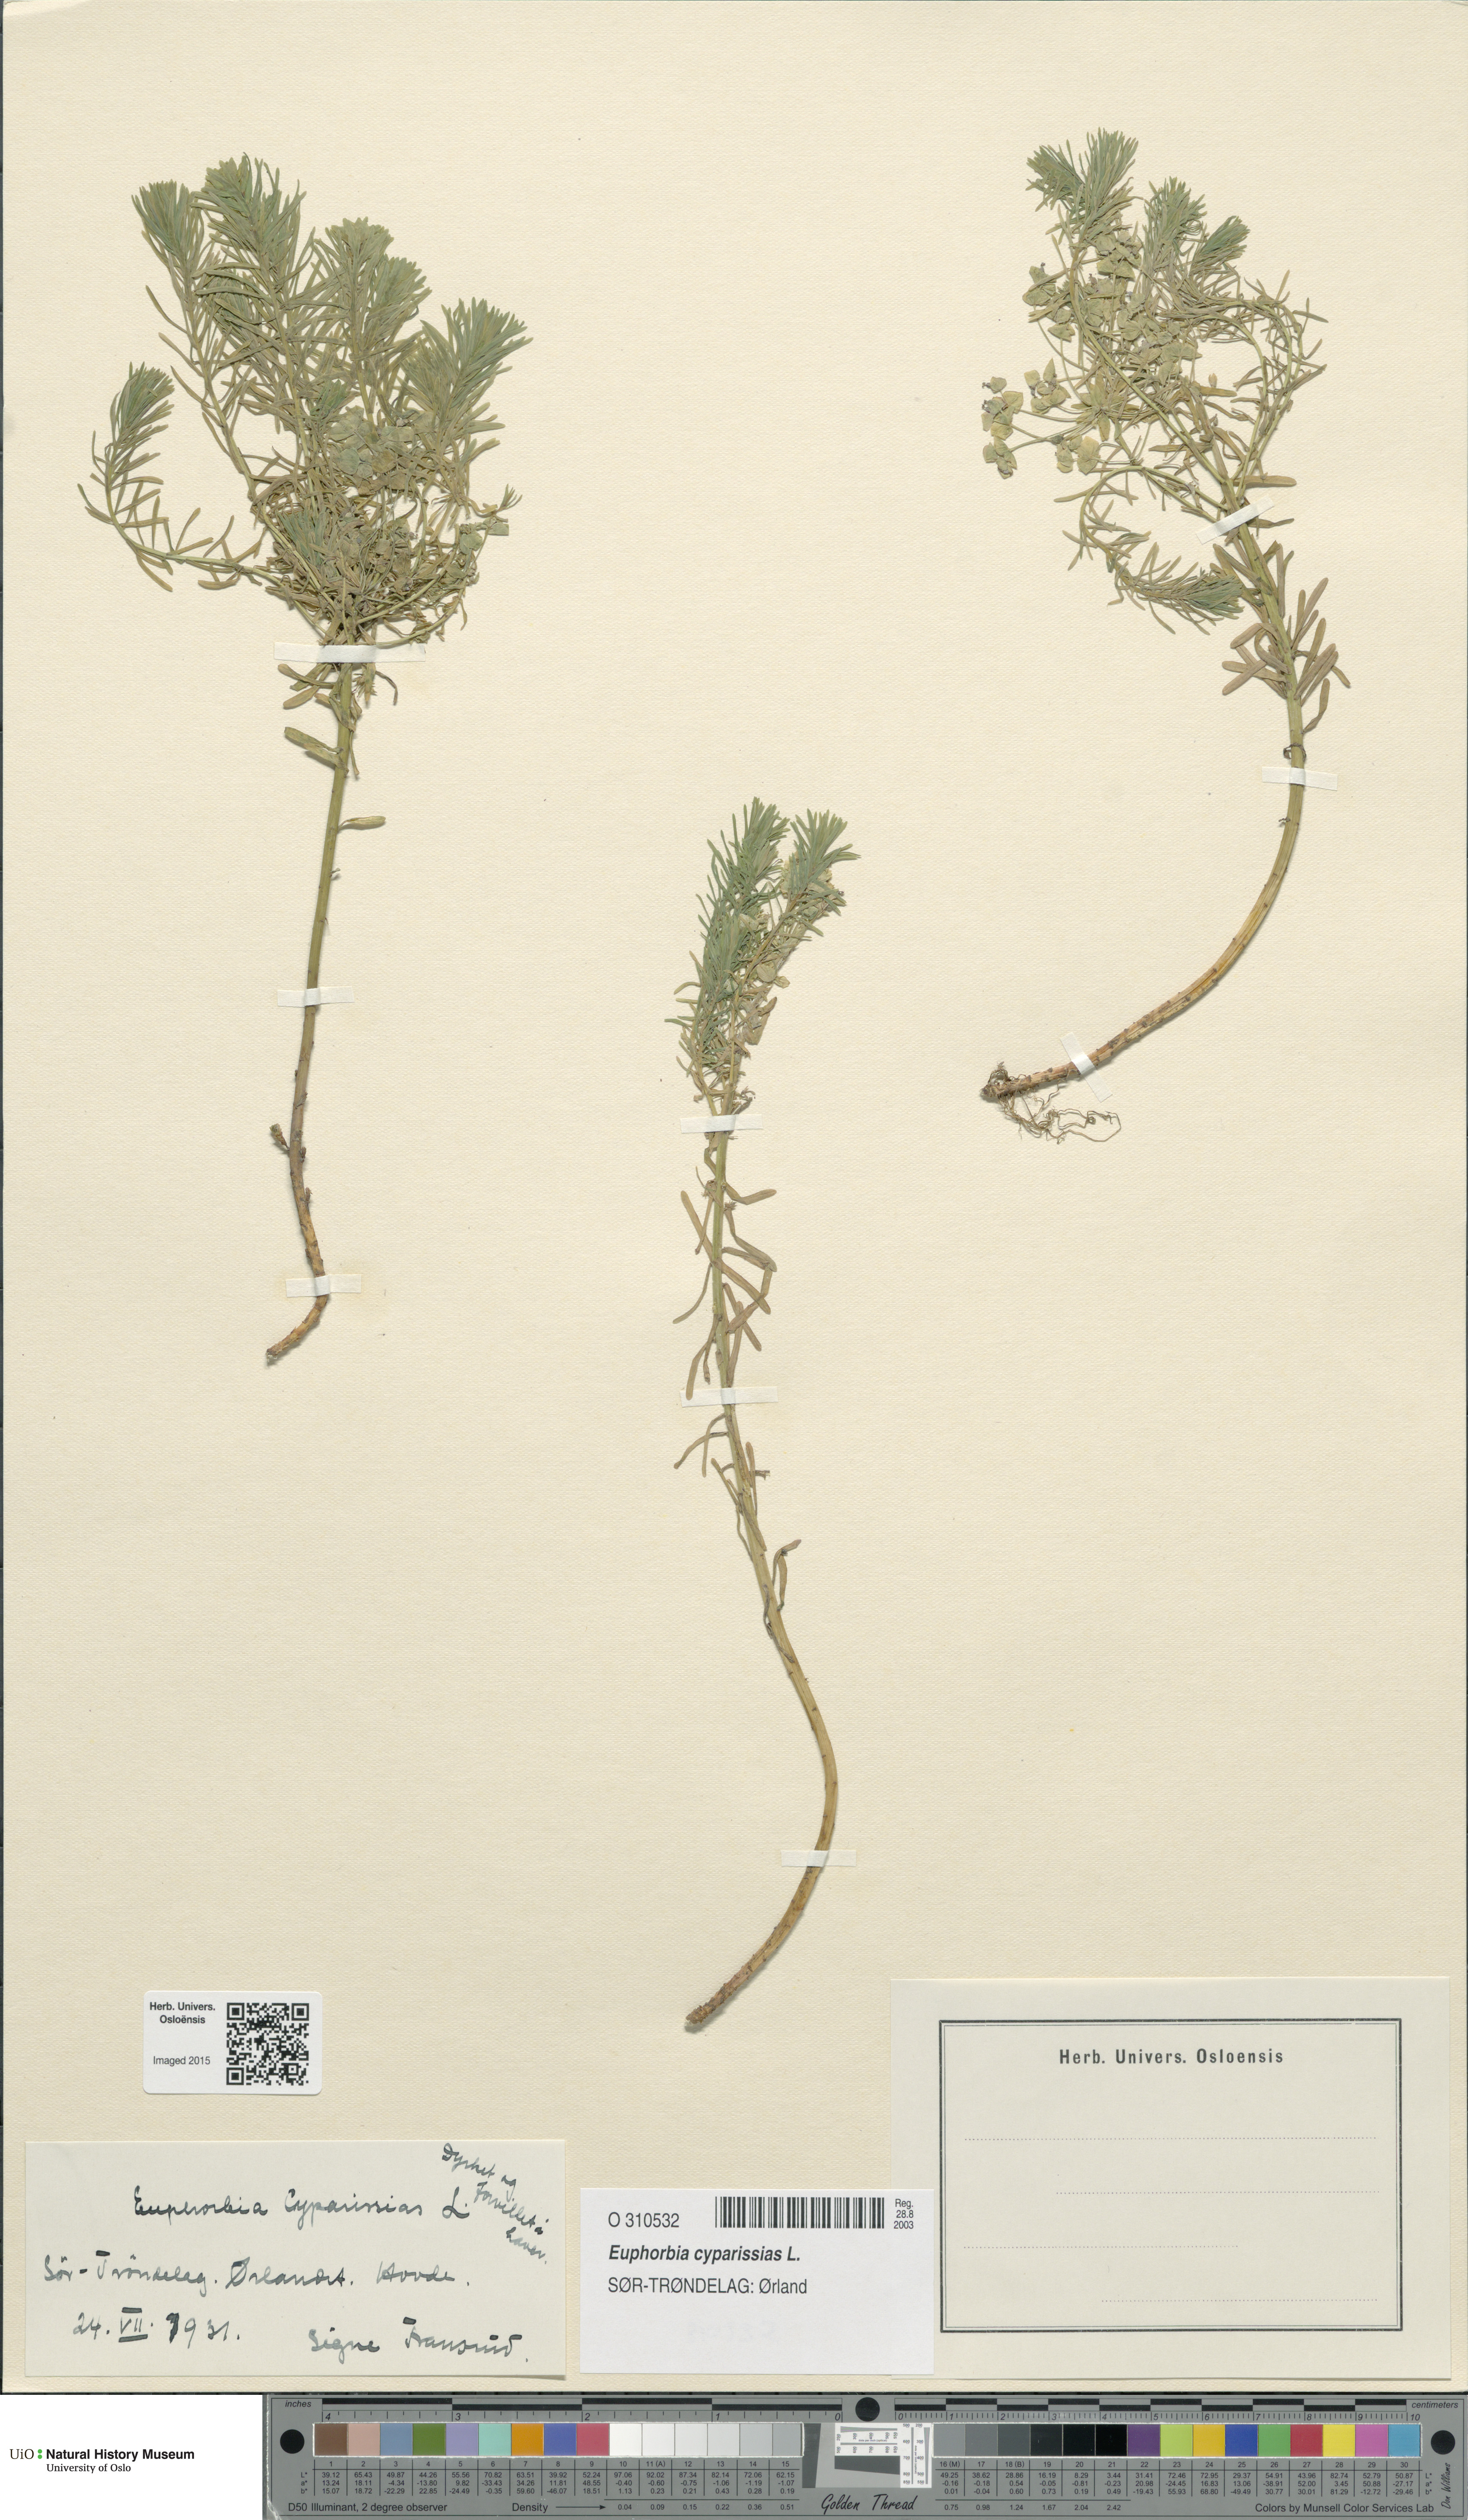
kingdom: Plantae
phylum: Tracheophyta
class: Magnoliopsida
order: Malpighiales
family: Euphorbiaceae
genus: Euphorbia
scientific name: Euphorbia cyparissias
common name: Cypress spurge
